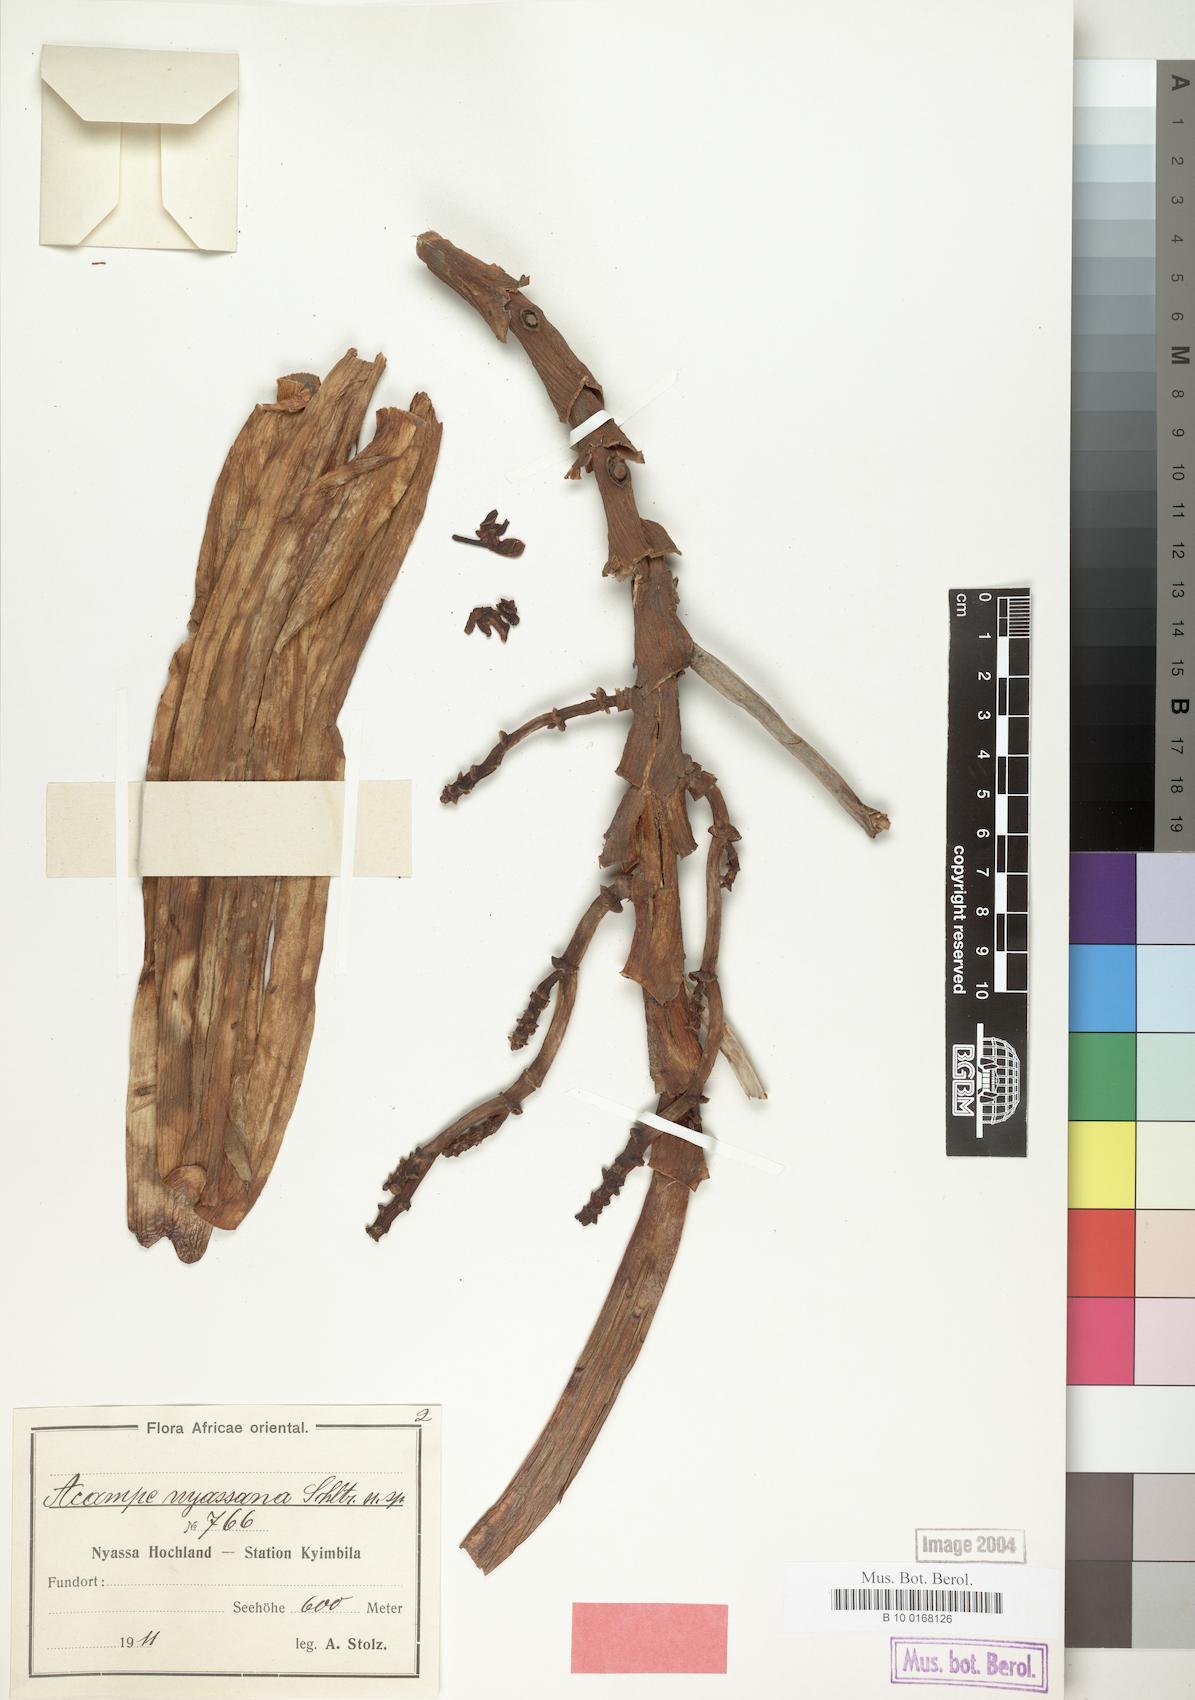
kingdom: Plantae
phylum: Tracheophyta
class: Liliopsida
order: Asparagales
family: Orchidaceae
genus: Acampe
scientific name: Acampe pachyglossa
